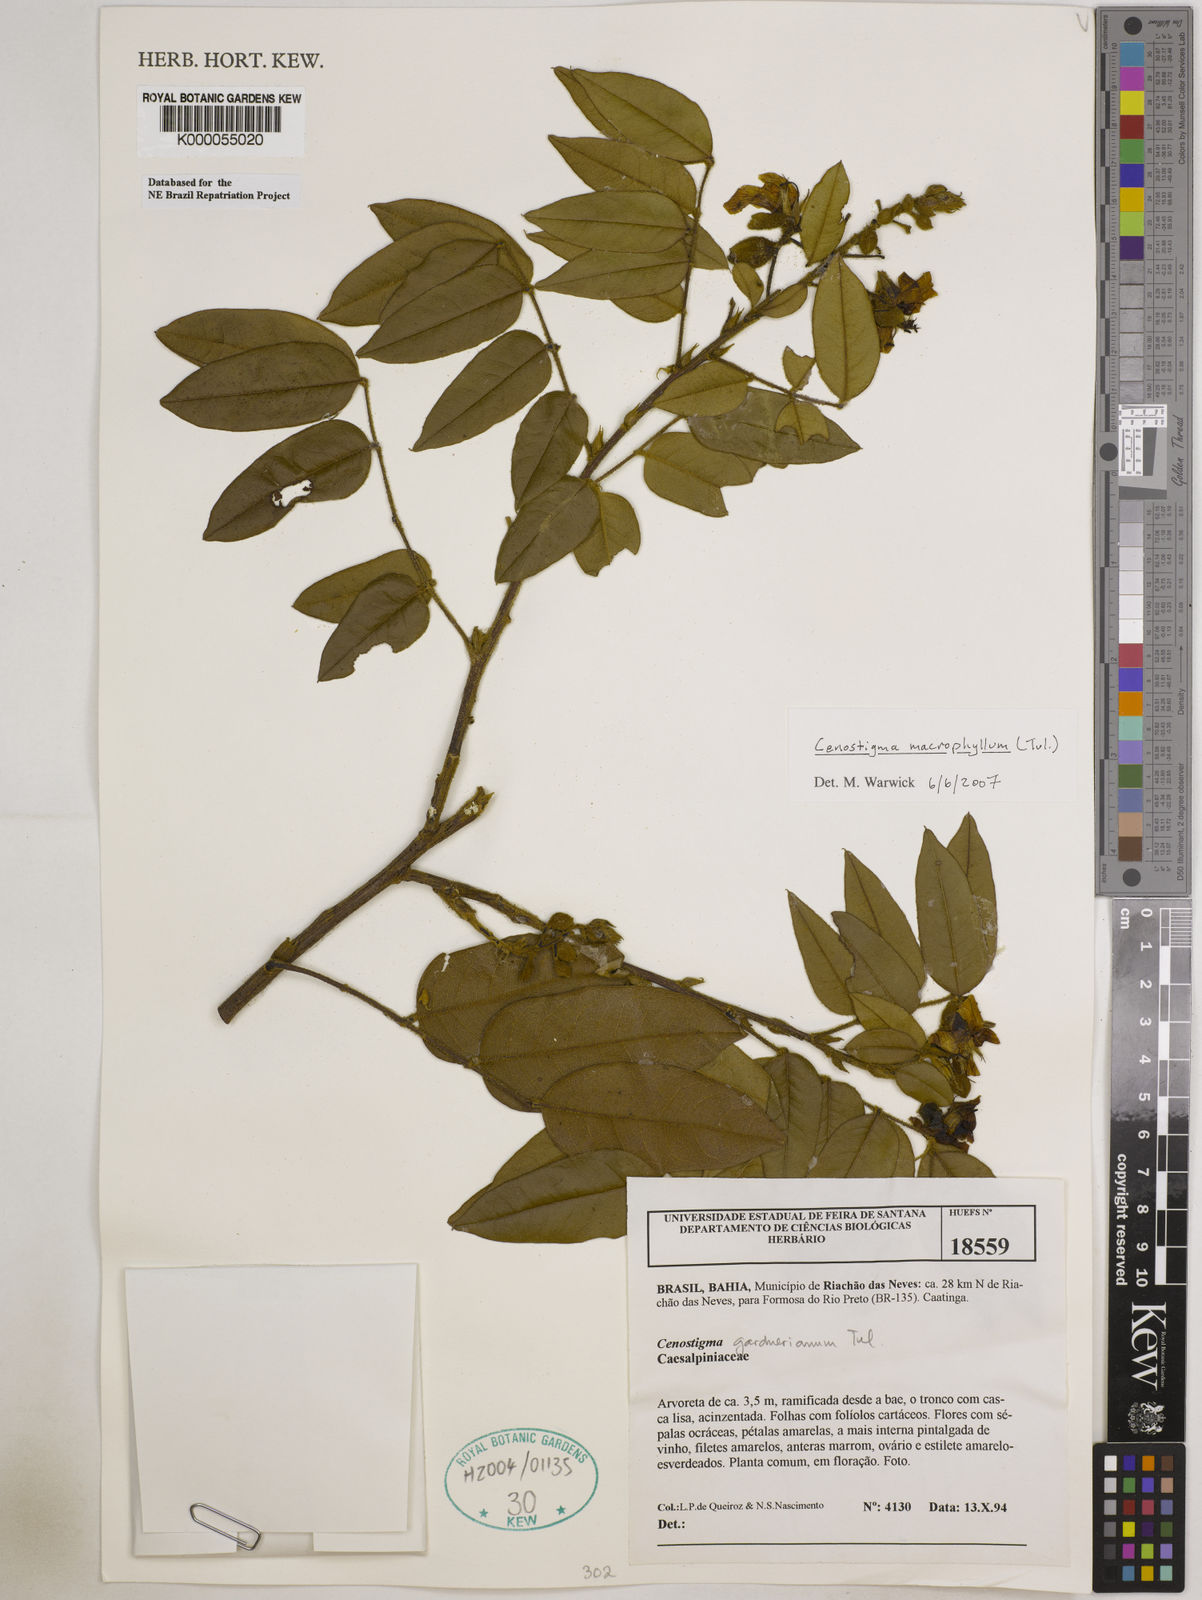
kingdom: Plantae
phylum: Tracheophyta
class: Magnoliopsida
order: Fabales
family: Fabaceae
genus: Cenostigma
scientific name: Cenostigma macrophyllum
